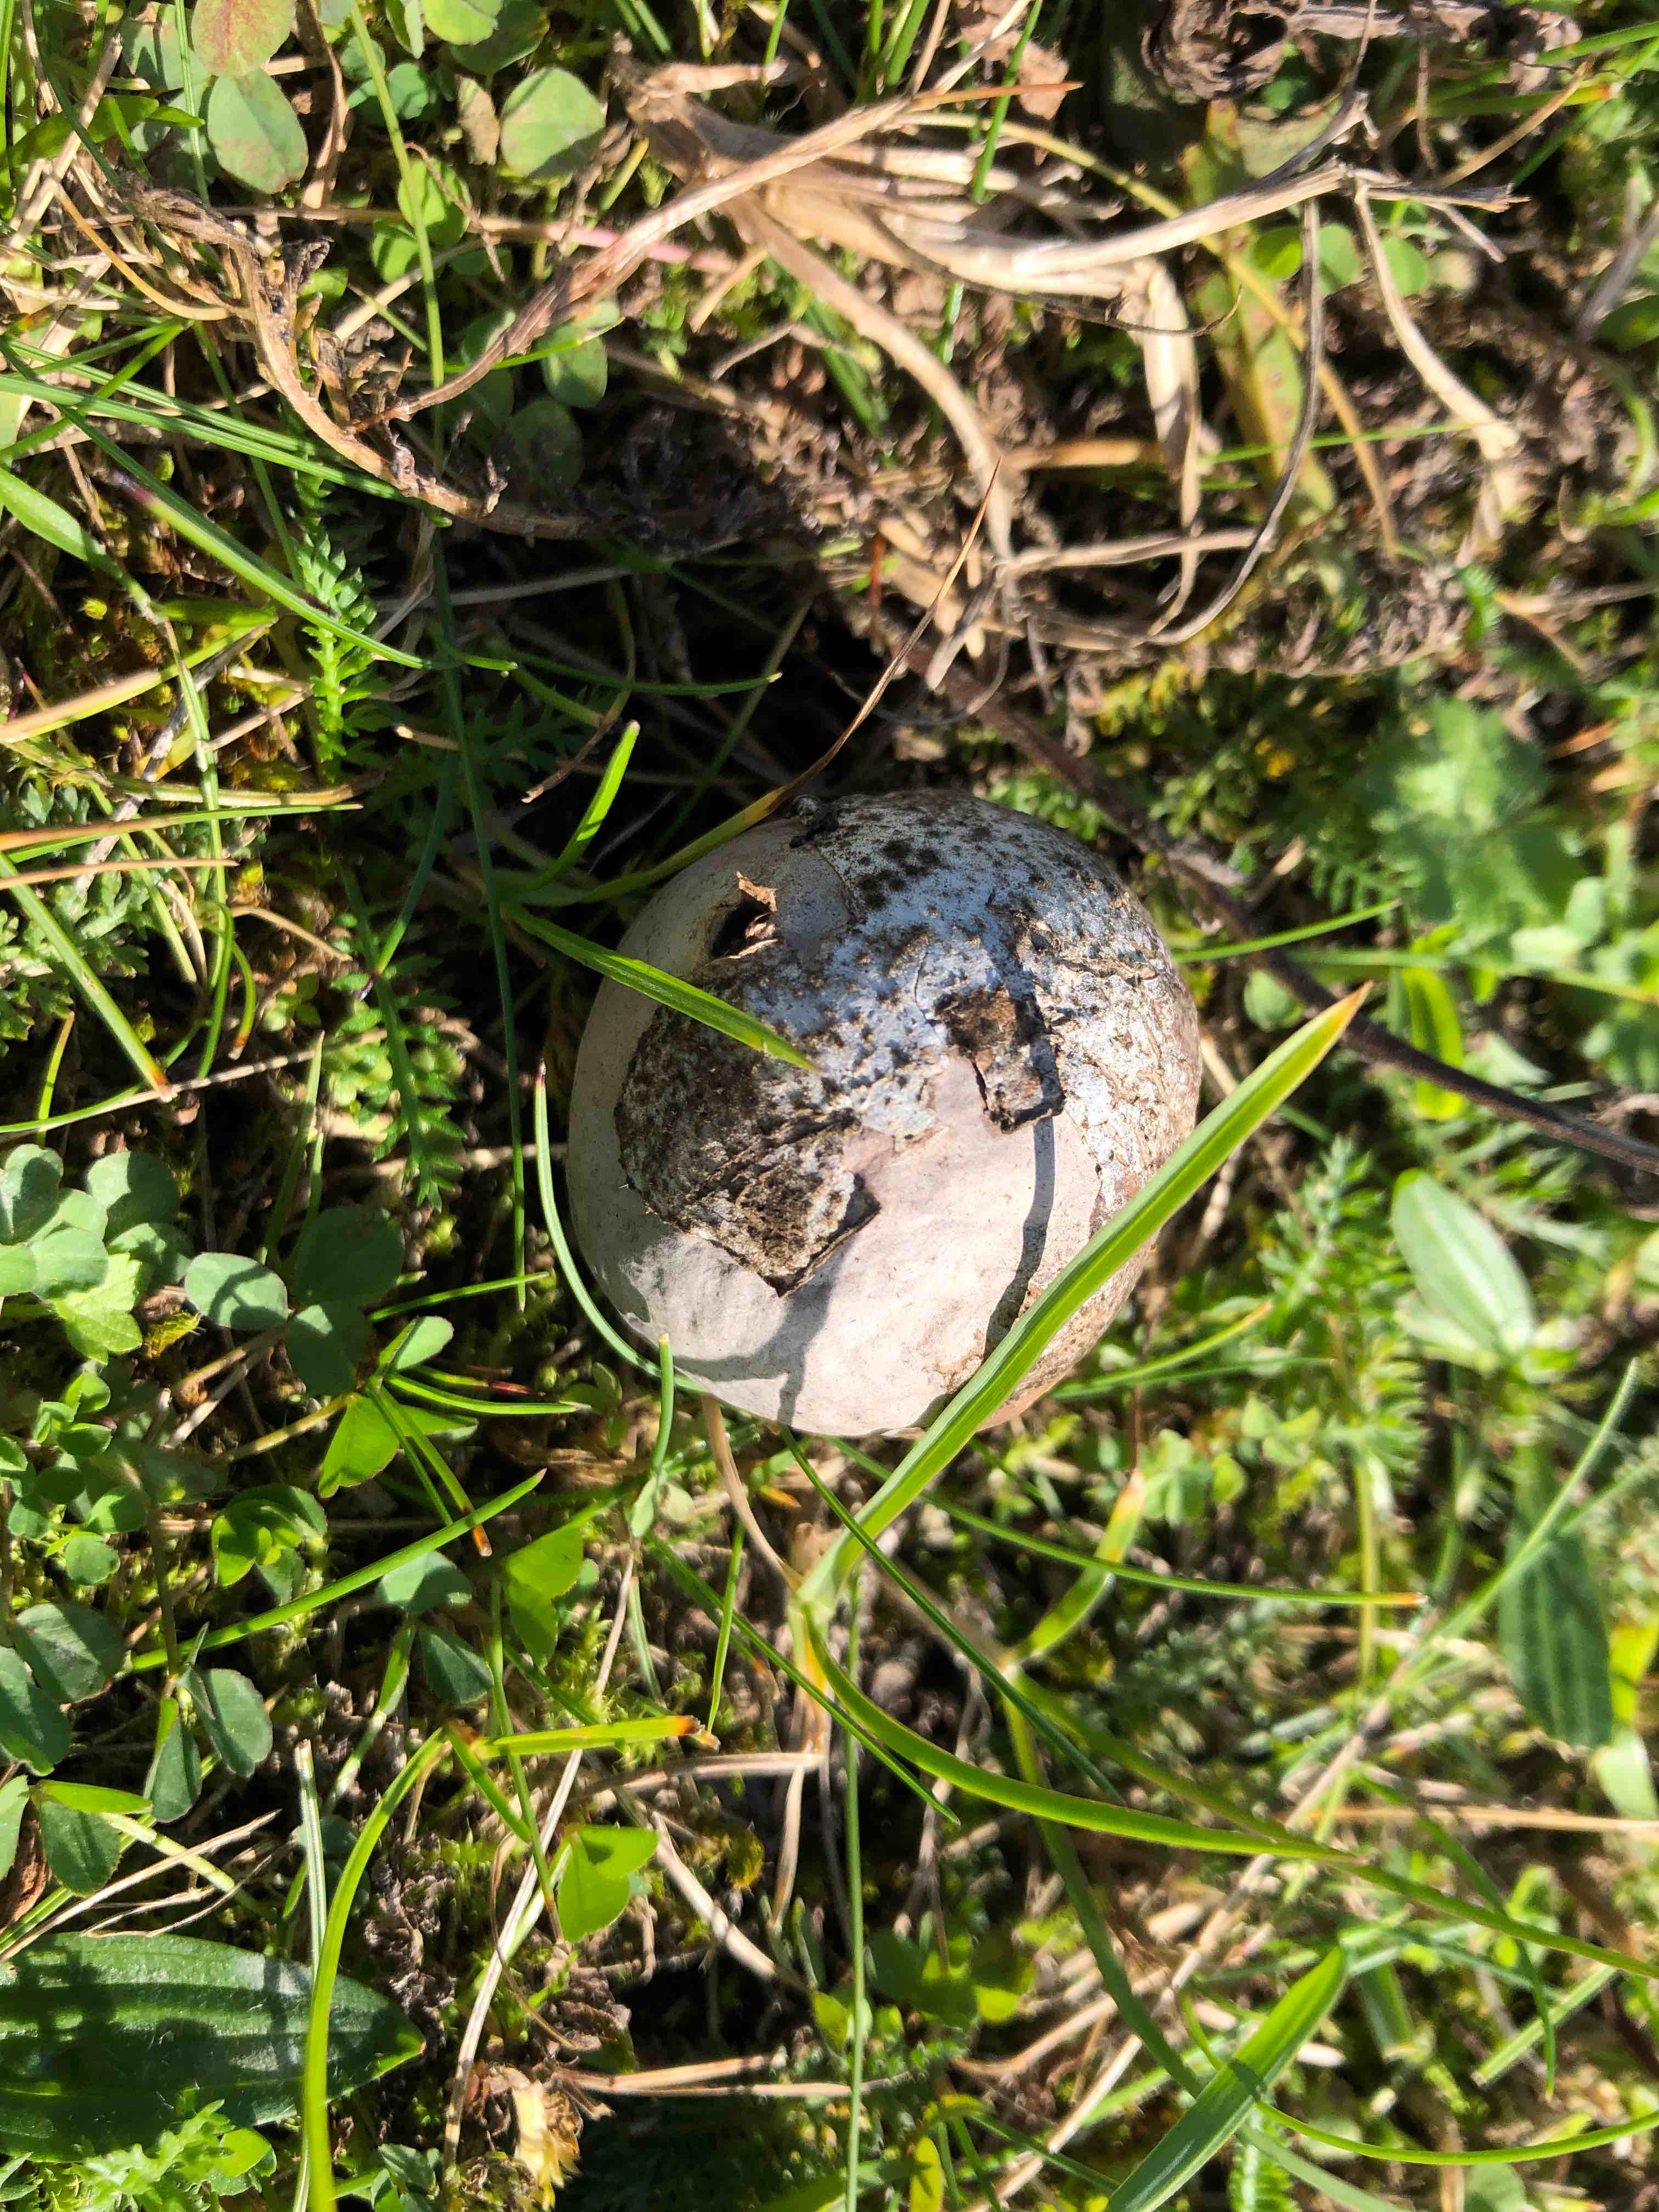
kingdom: Fungi
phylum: Basidiomycota
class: Agaricomycetes
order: Agaricales
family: Lycoperdaceae
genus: Bovista
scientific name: Bovista plumbea
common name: blygrå bovist
